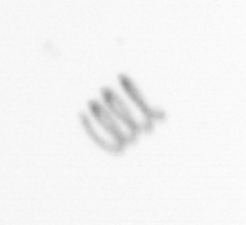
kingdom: Chromista
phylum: Ochrophyta
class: Bacillariophyceae
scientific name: Bacillariophyceae
